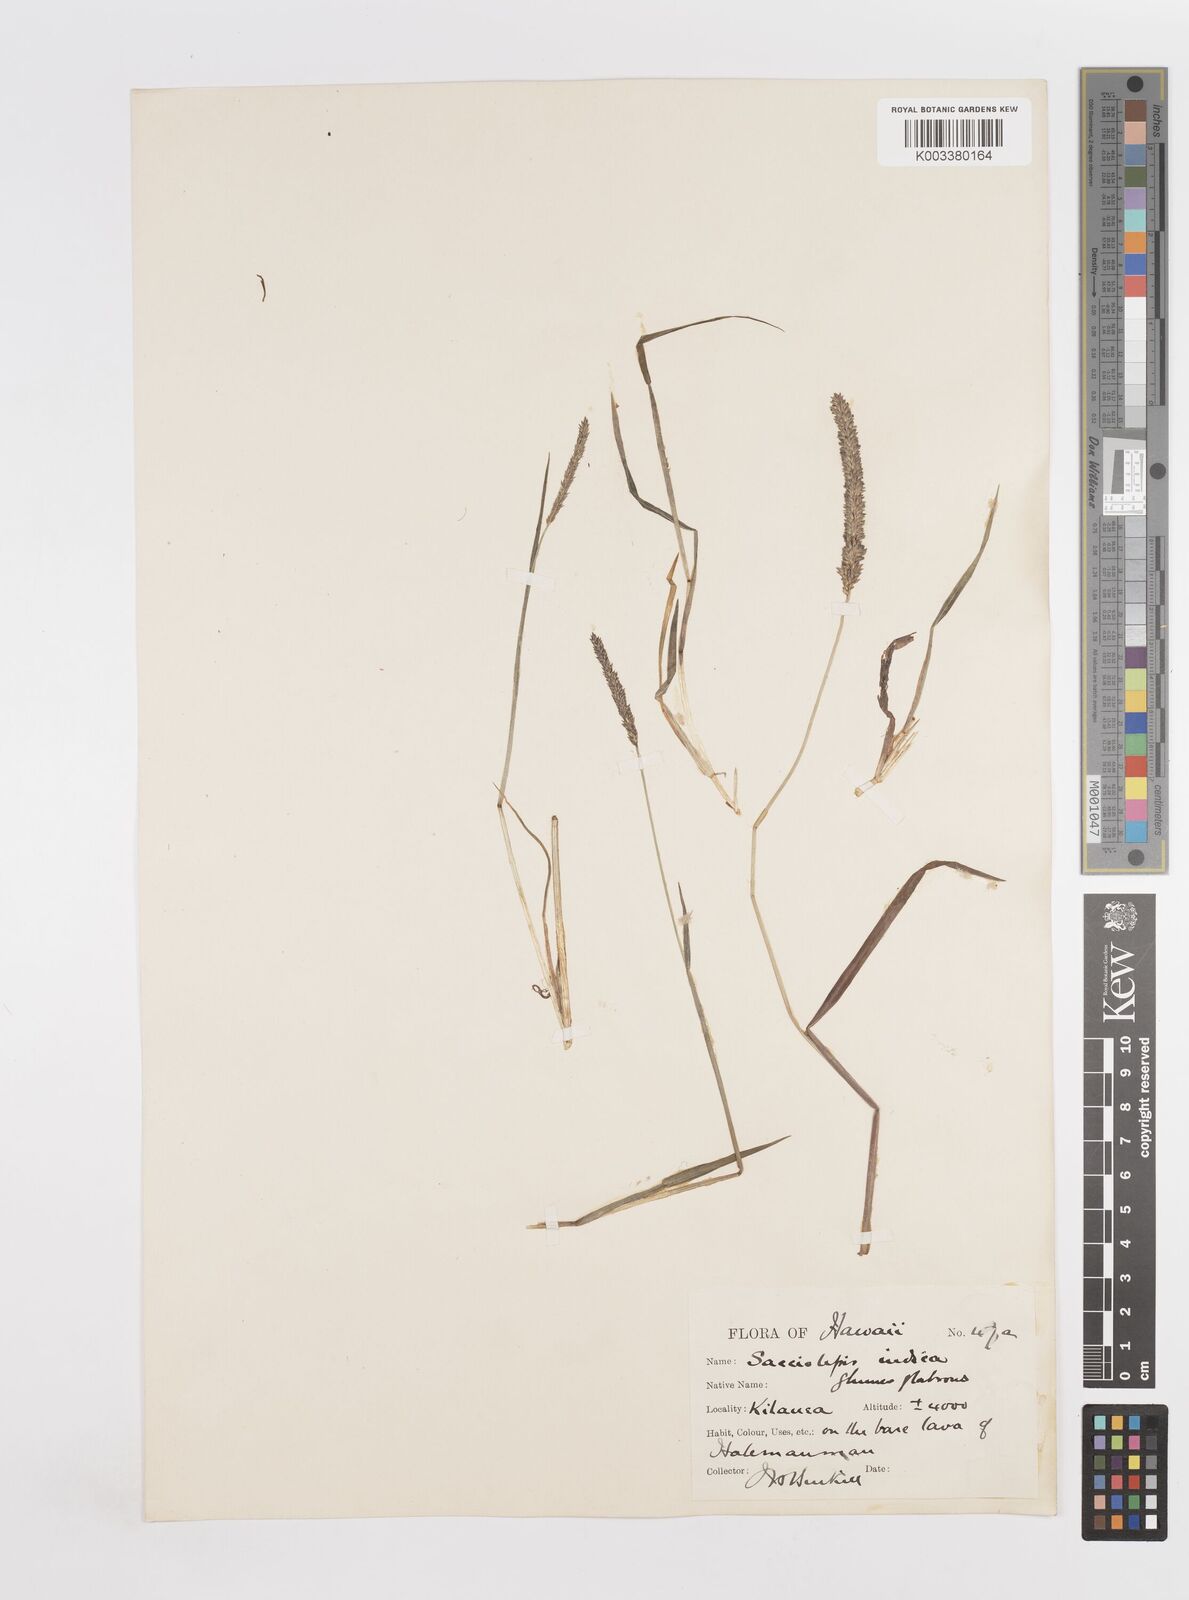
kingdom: Plantae
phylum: Tracheophyta
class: Liliopsida
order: Poales
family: Poaceae
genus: Sacciolepis
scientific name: Sacciolepis indica
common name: Glenwoodgrass
